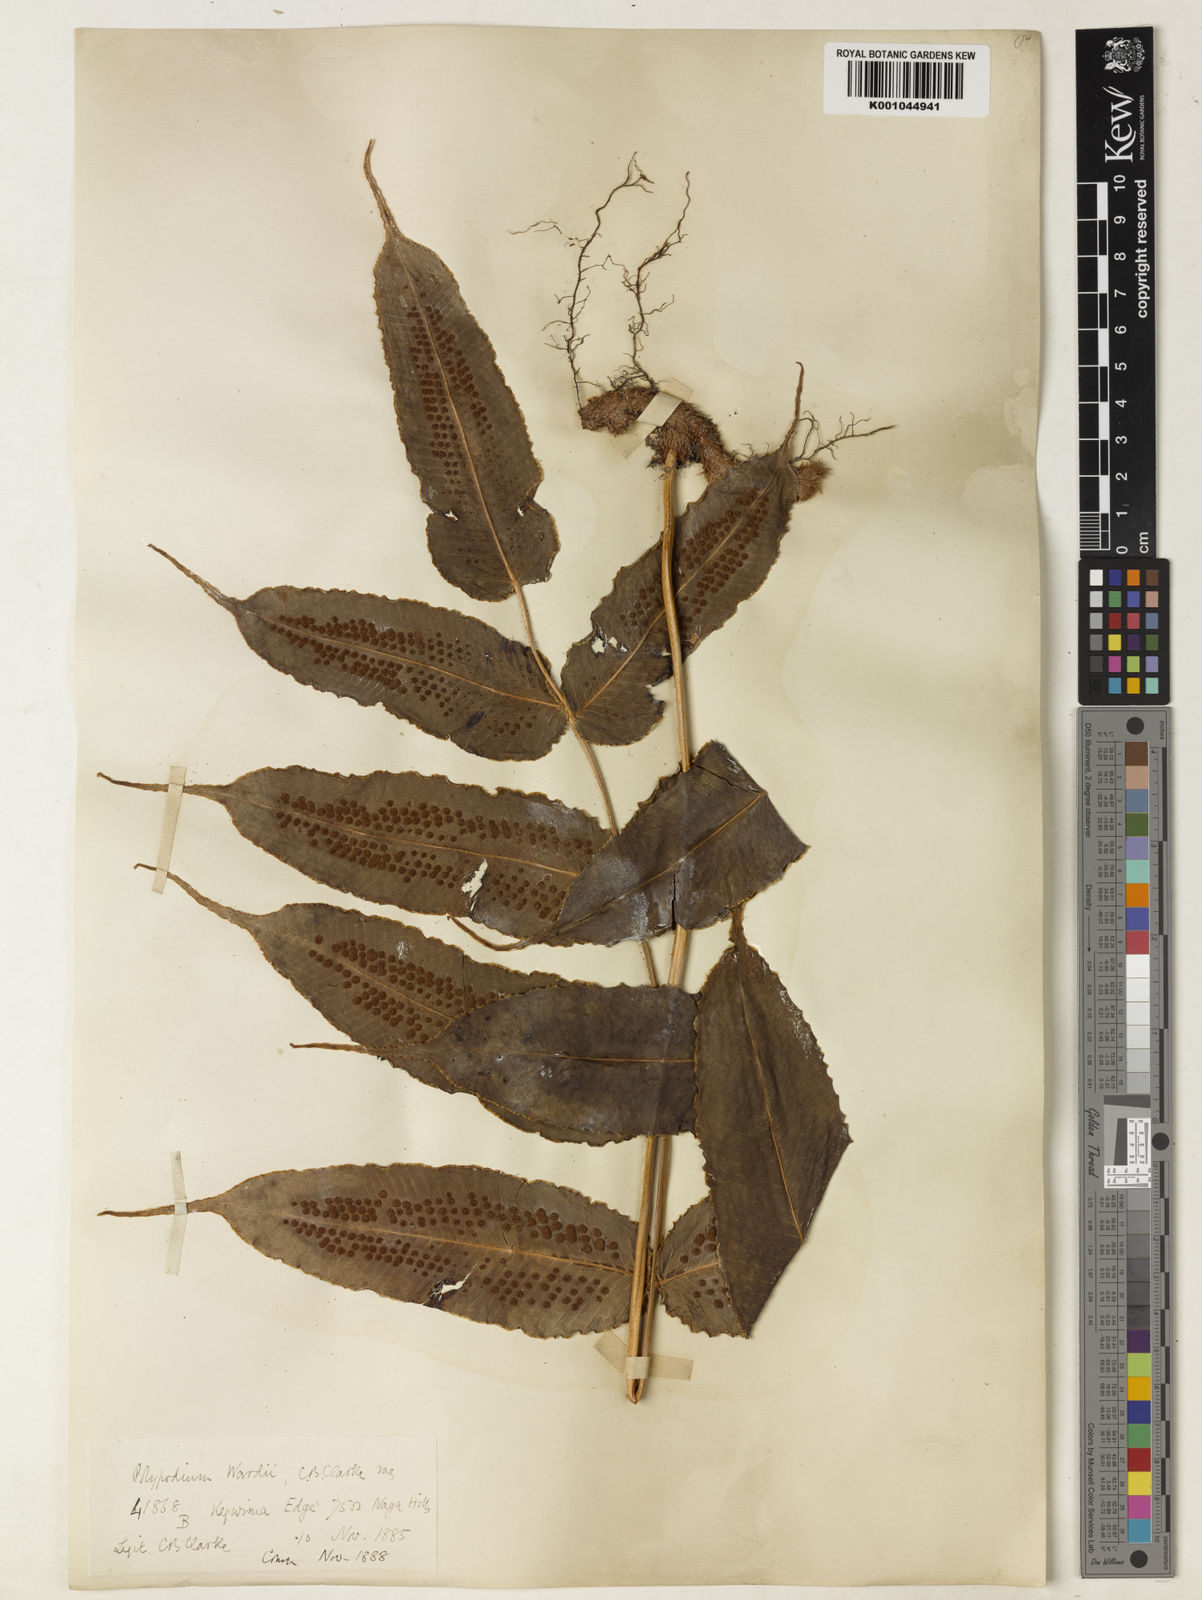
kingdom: Plantae
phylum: Tracheophyta
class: Polypodiopsida
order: Polypodiales
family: Polypodiaceae
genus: Selliguea
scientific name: Selliguea wardii
